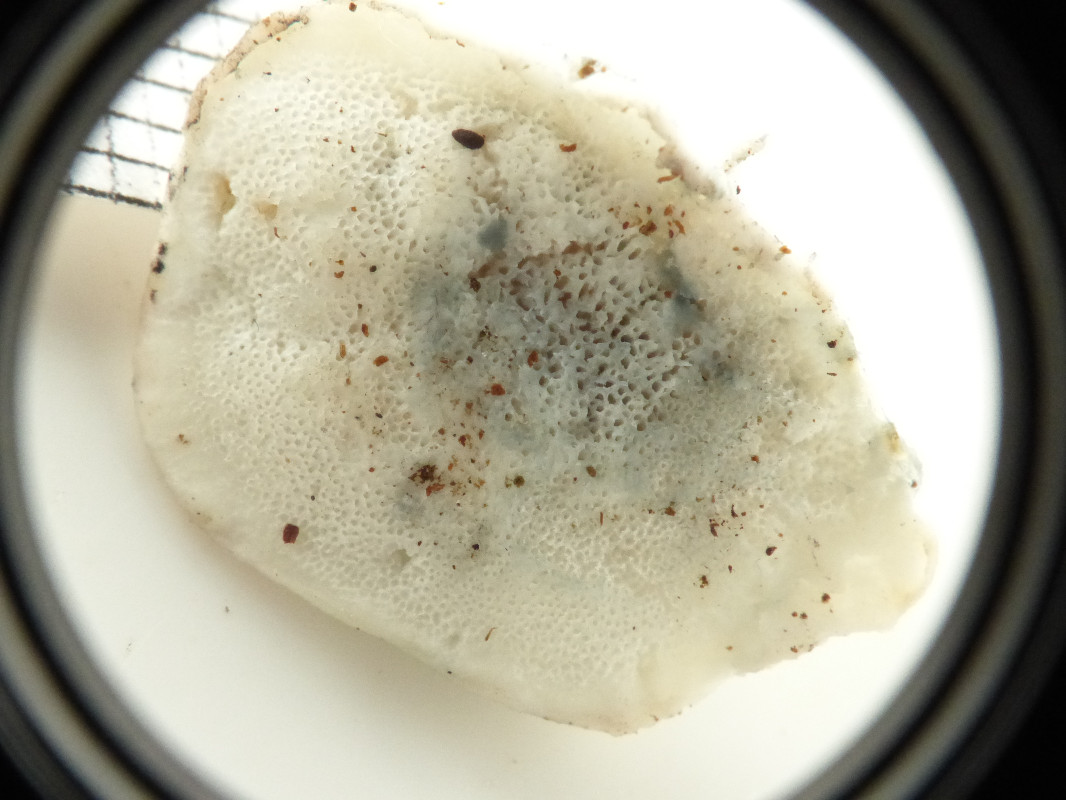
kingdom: Fungi
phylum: Basidiomycota
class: Agaricomycetes
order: Polyporales
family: Polyporaceae
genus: Cyanosporus
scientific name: Cyanosporus alni
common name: blegblå kødporesvamp
